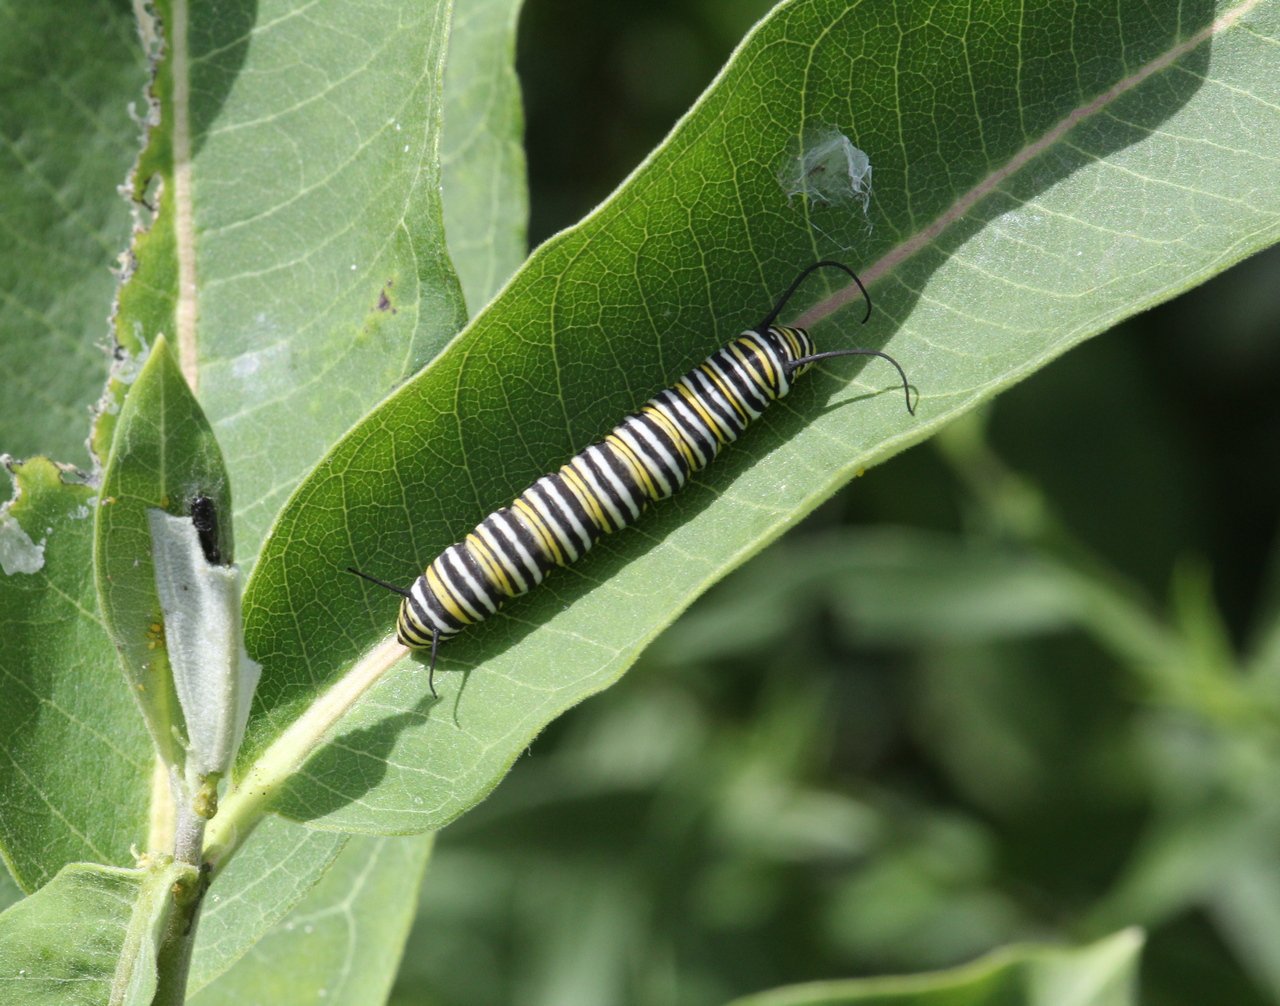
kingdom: Animalia
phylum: Arthropoda
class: Insecta
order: Lepidoptera
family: Nymphalidae
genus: Danaus
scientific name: Danaus plexippus
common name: Monarch
